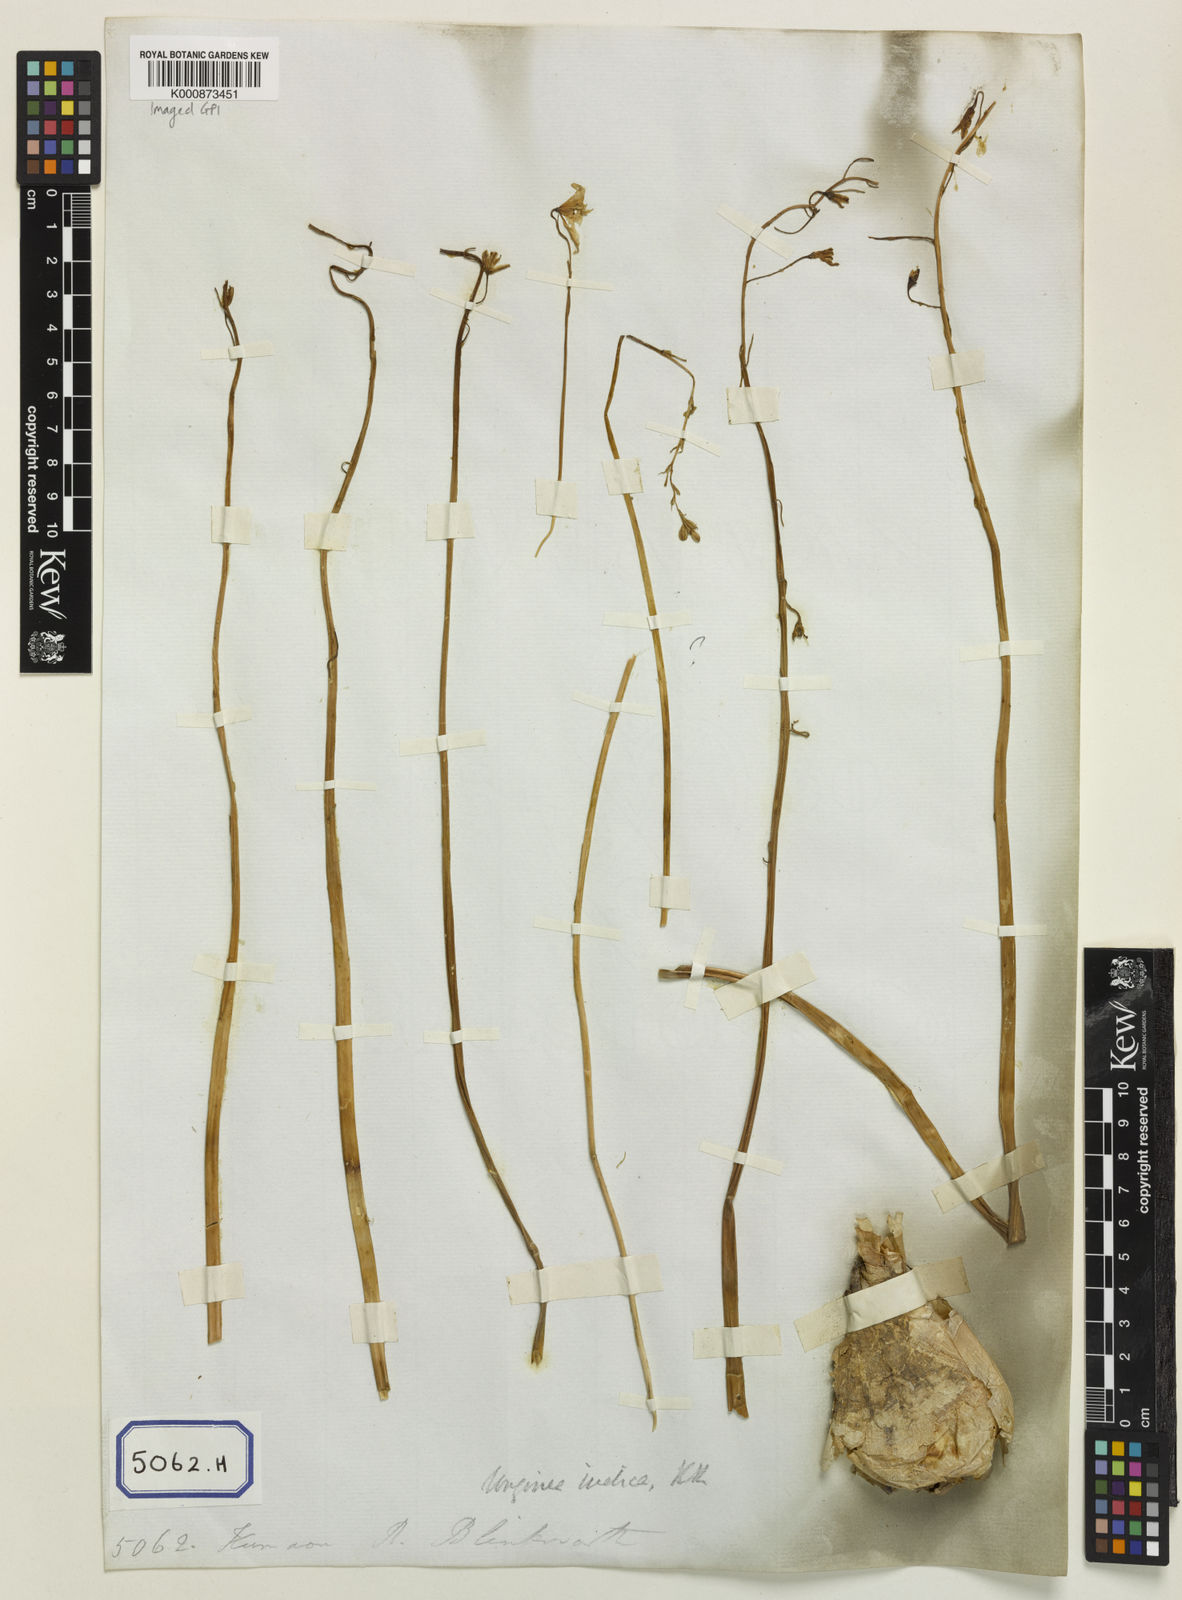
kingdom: Plantae
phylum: Tracheophyta
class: Liliopsida
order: Asparagales
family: Asparagaceae
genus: Drimia
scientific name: Drimia indica
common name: Indian-squill
